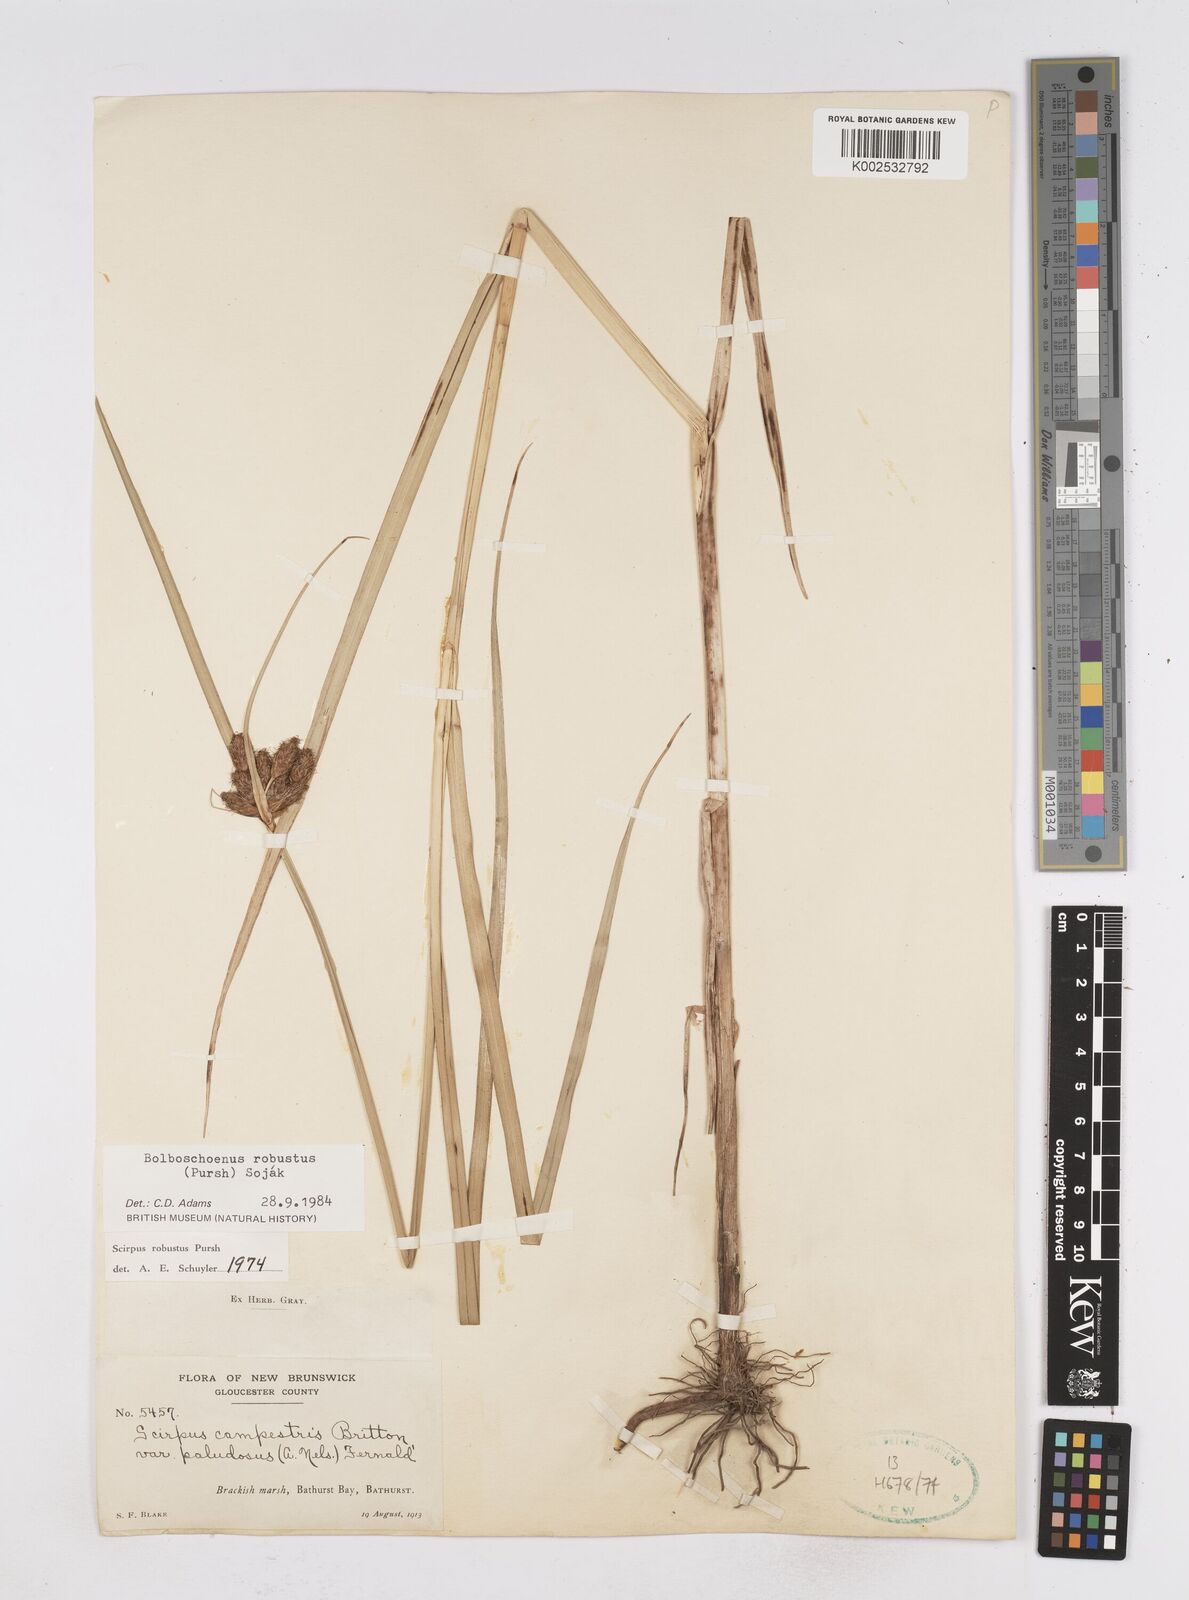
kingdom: Plantae
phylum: Tracheophyta
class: Liliopsida
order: Poales
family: Cyperaceae
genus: Bolboschoenus
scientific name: Bolboschoenus robustus
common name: Seacoast bulrush
